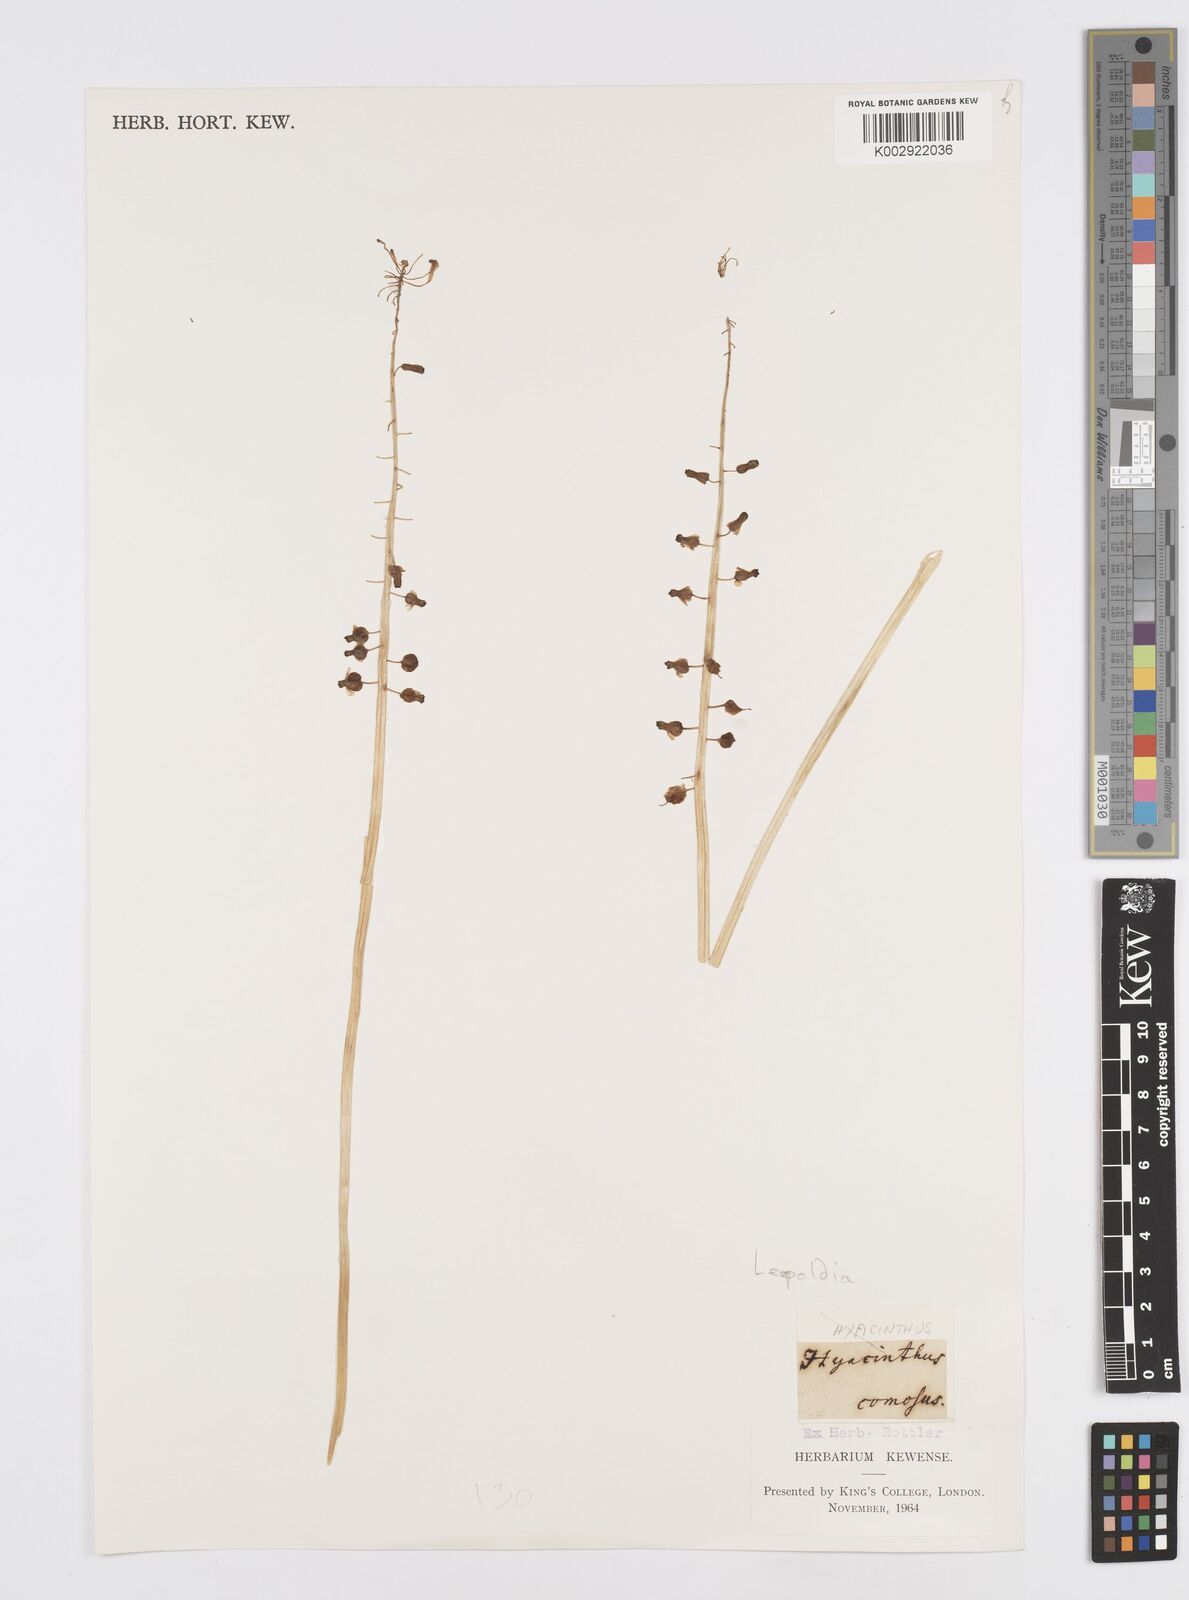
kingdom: Animalia
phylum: Mollusca
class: Cephalopoda
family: Neocomitidae
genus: Leopoldia
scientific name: Leopoldia
